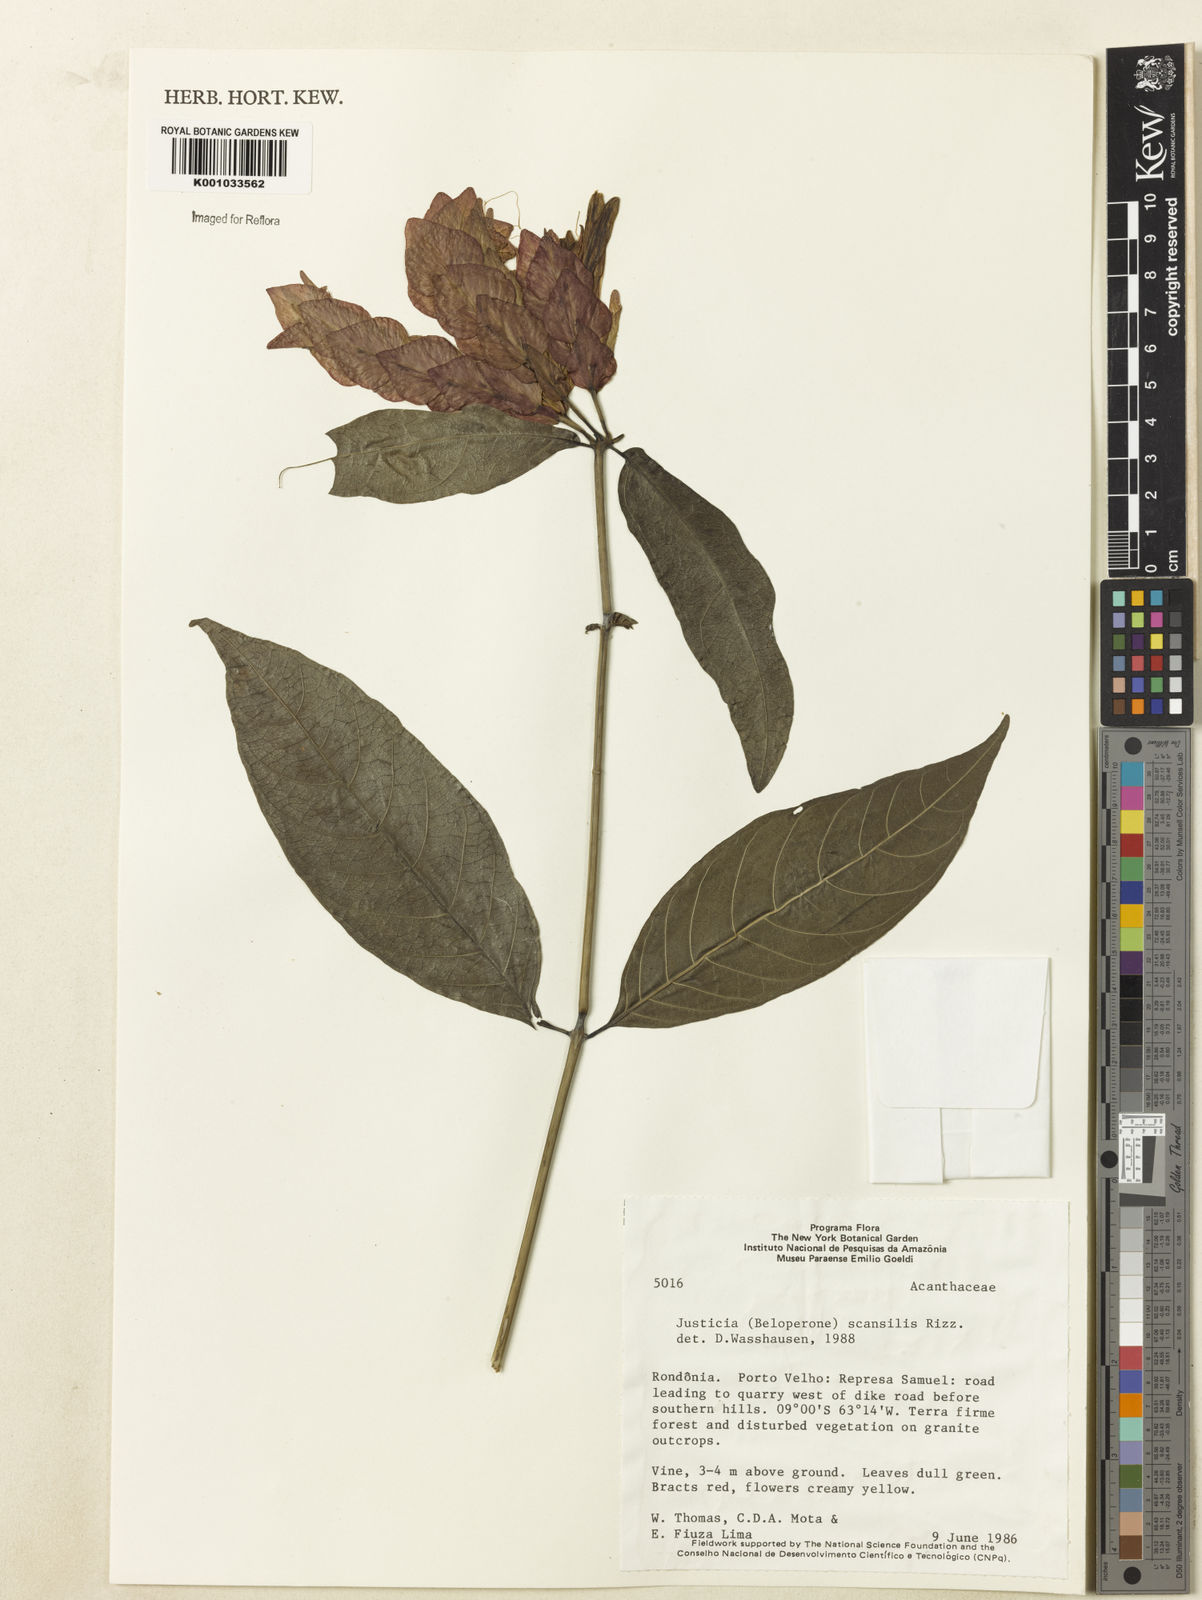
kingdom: Plantae
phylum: Tracheophyta
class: Magnoliopsida
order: Lamiales
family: Acanthaceae
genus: Justicia
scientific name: Justicia scansilis
